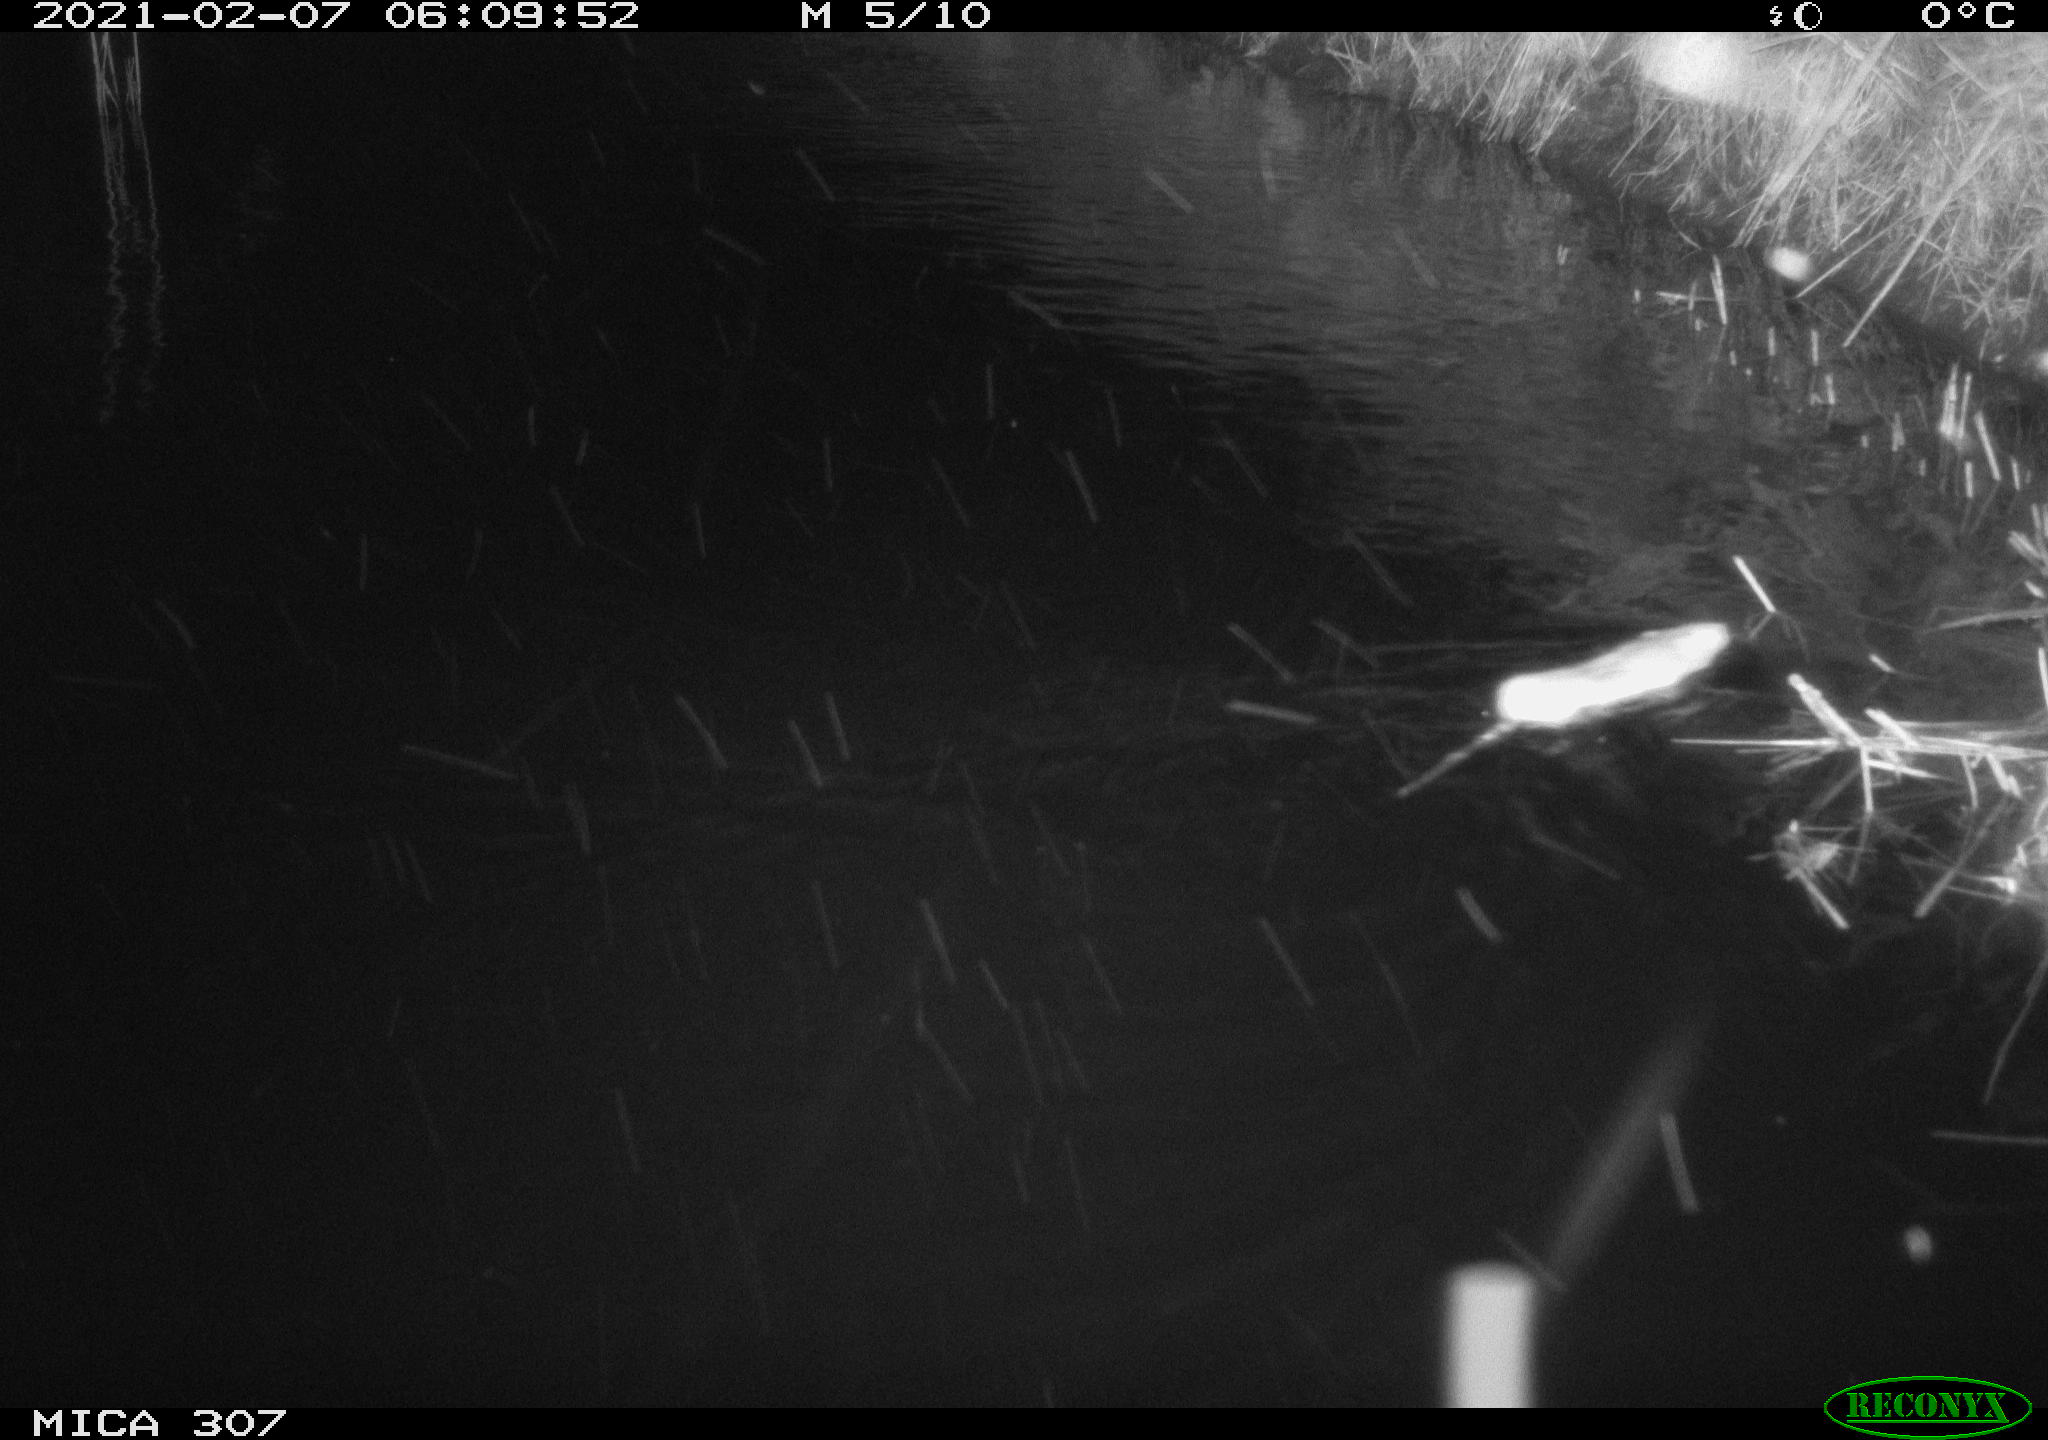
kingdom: Animalia
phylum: Chordata
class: Mammalia
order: Rodentia
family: Muridae
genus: Rattus
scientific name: Rattus norvegicus
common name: Brown rat
